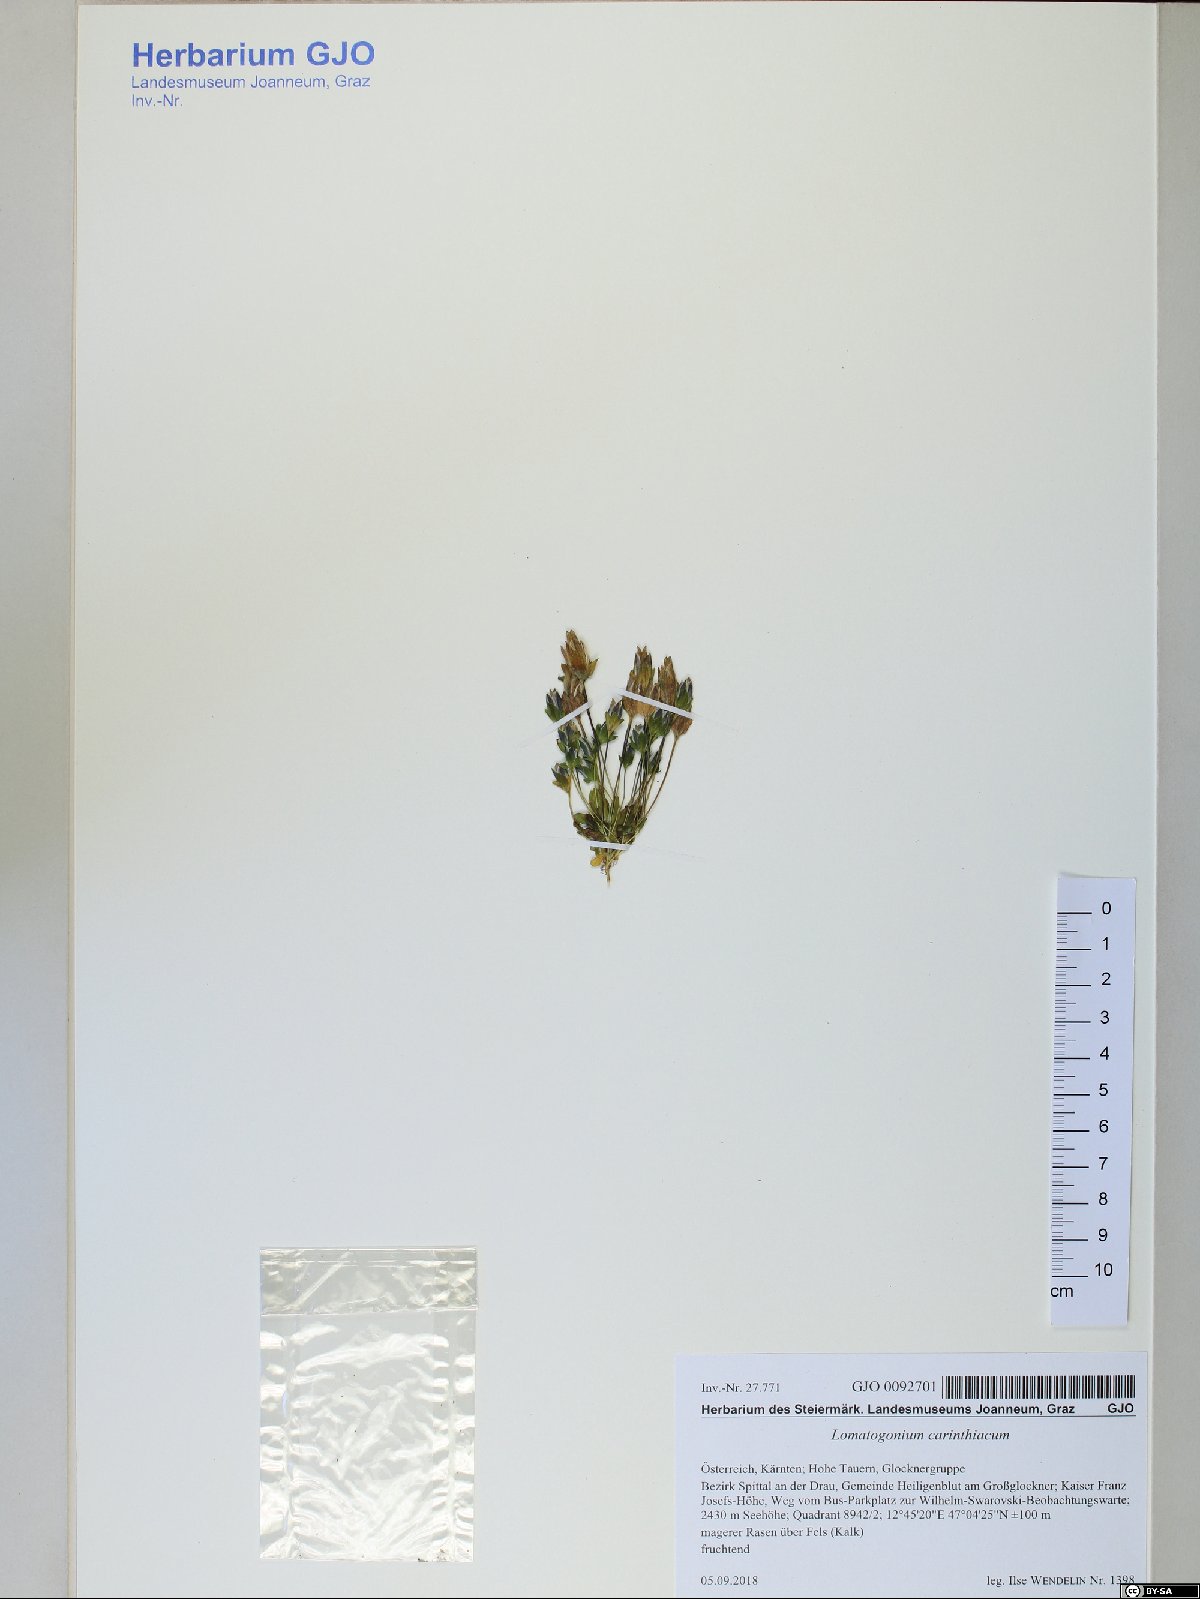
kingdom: Plantae
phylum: Tracheophyta
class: Magnoliopsida
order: Gentianales
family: Gentianaceae
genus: Lomatogonium
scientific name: Lomatogonium carinthiacum
